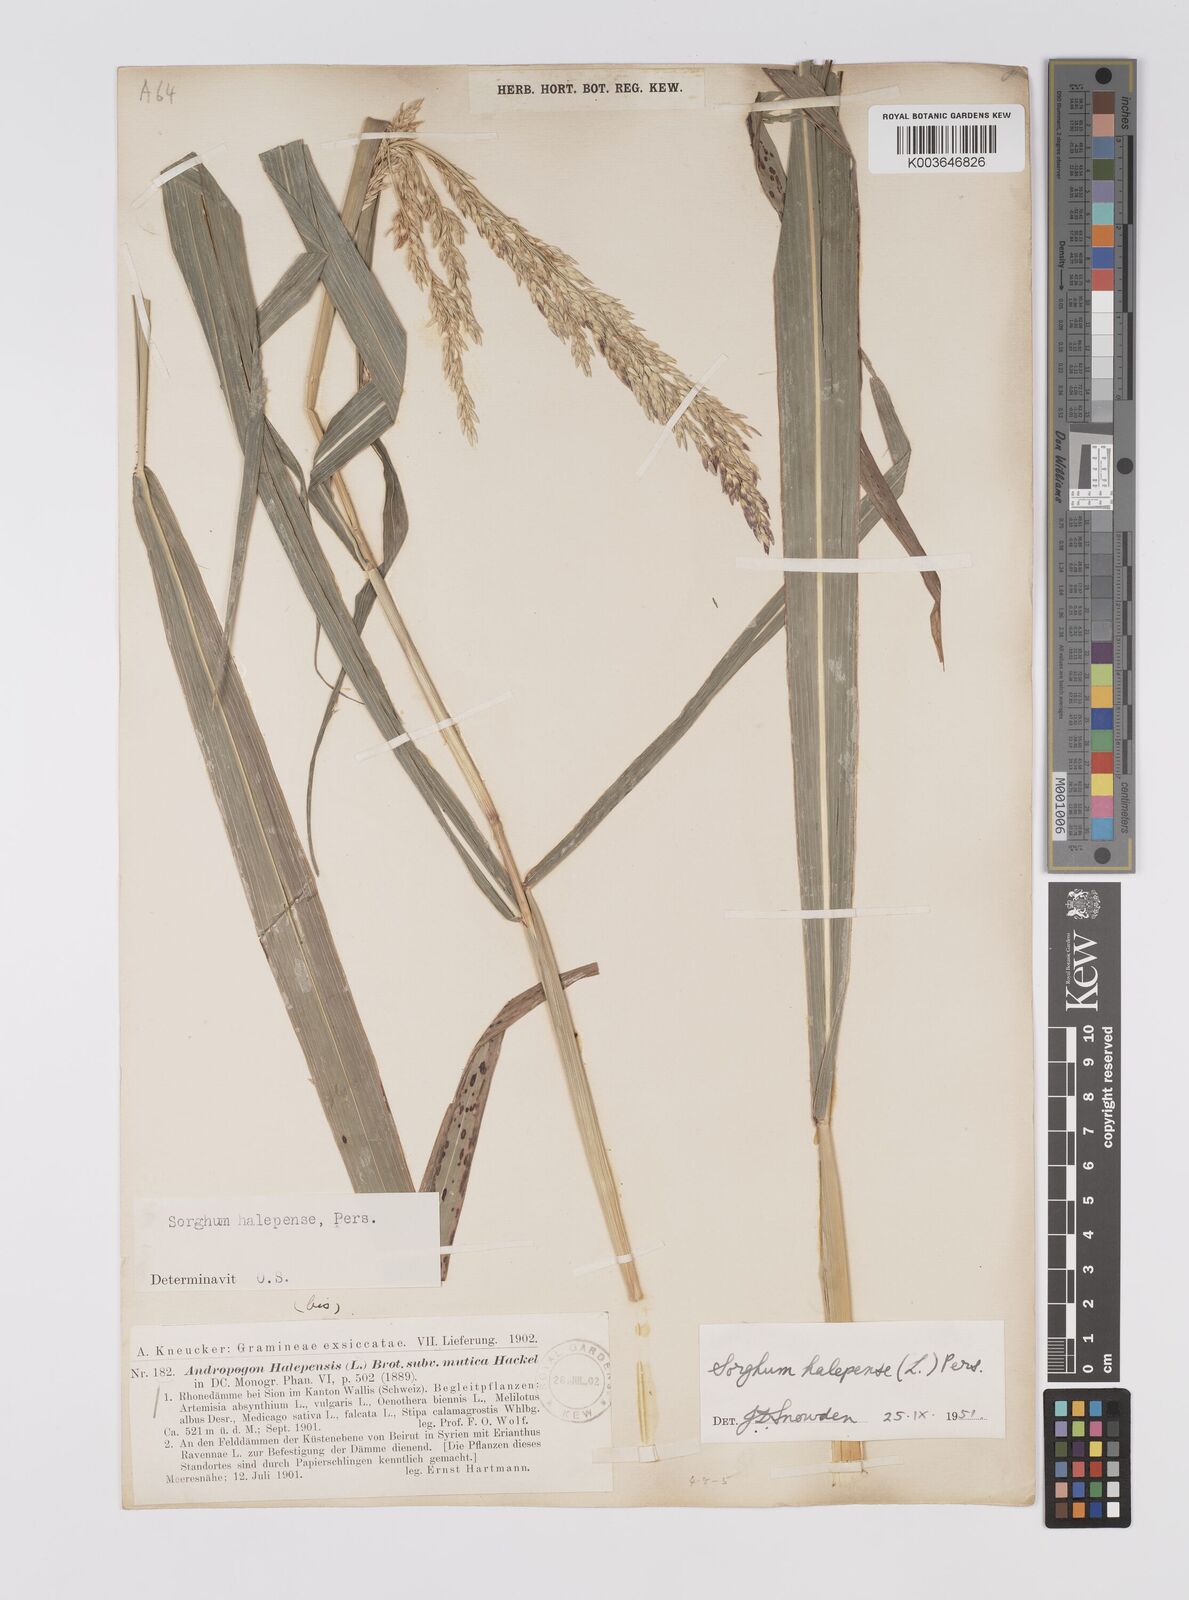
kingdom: Plantae
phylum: Tracheophyta
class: Liliopsida
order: Poales
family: Poaceae
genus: Sorghum
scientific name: Sorghum halepense
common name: Johnson-grass
